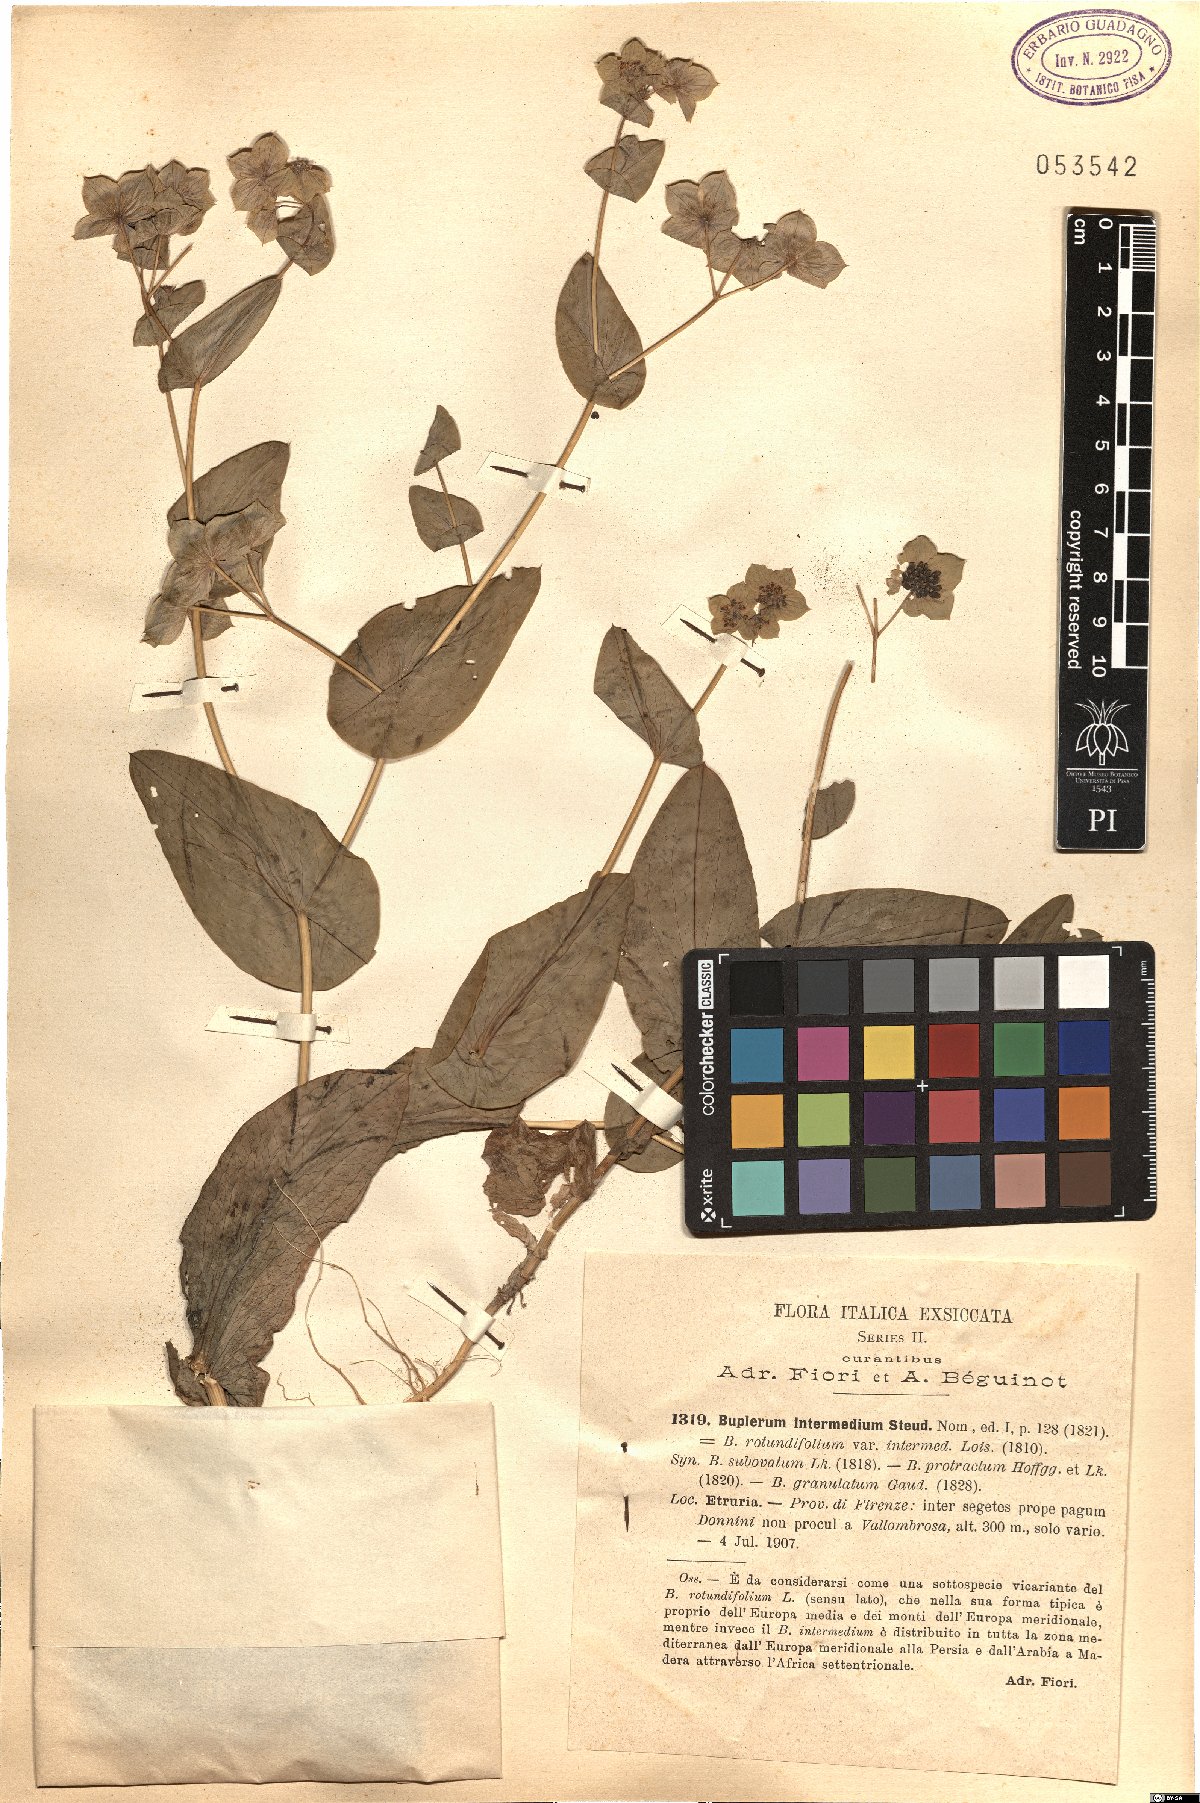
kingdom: Plantae
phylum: Tracheophyta
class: Magnoliopsida
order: Apiales
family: Apiaceae
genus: Bupleurum
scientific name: Bupleurum subovatum
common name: False thorow-wax
